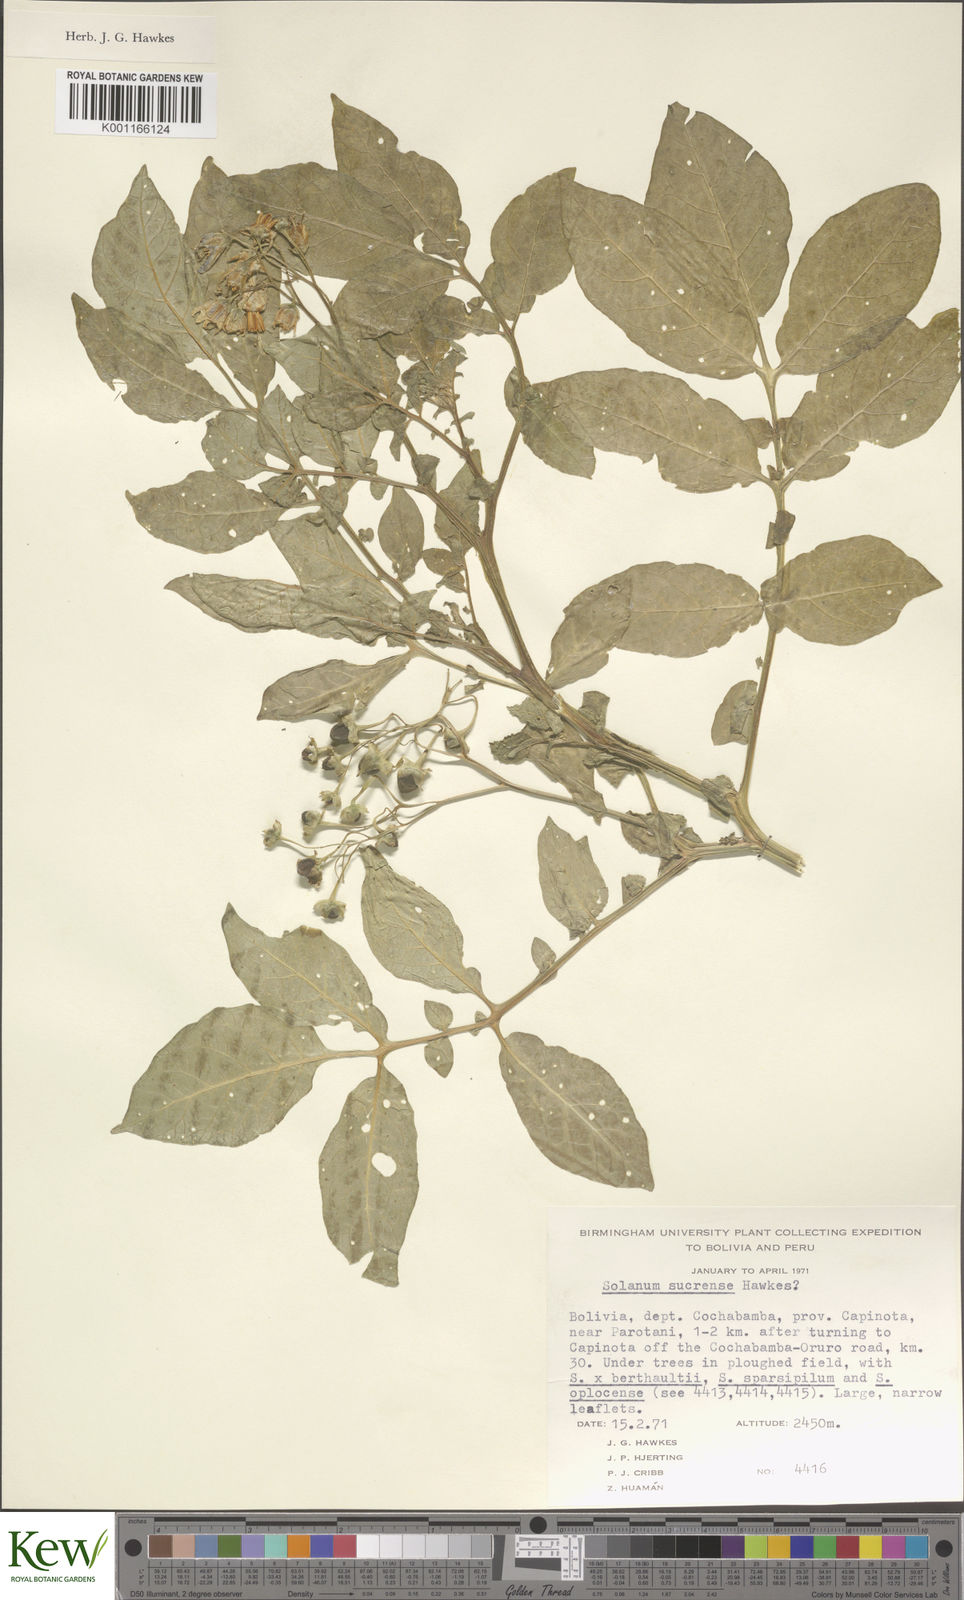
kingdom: Plantae
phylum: Tracheophyta
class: Magnoliopsida
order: Solanales
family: Solanaceae
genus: Solanum
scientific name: Solanum brevicaule
